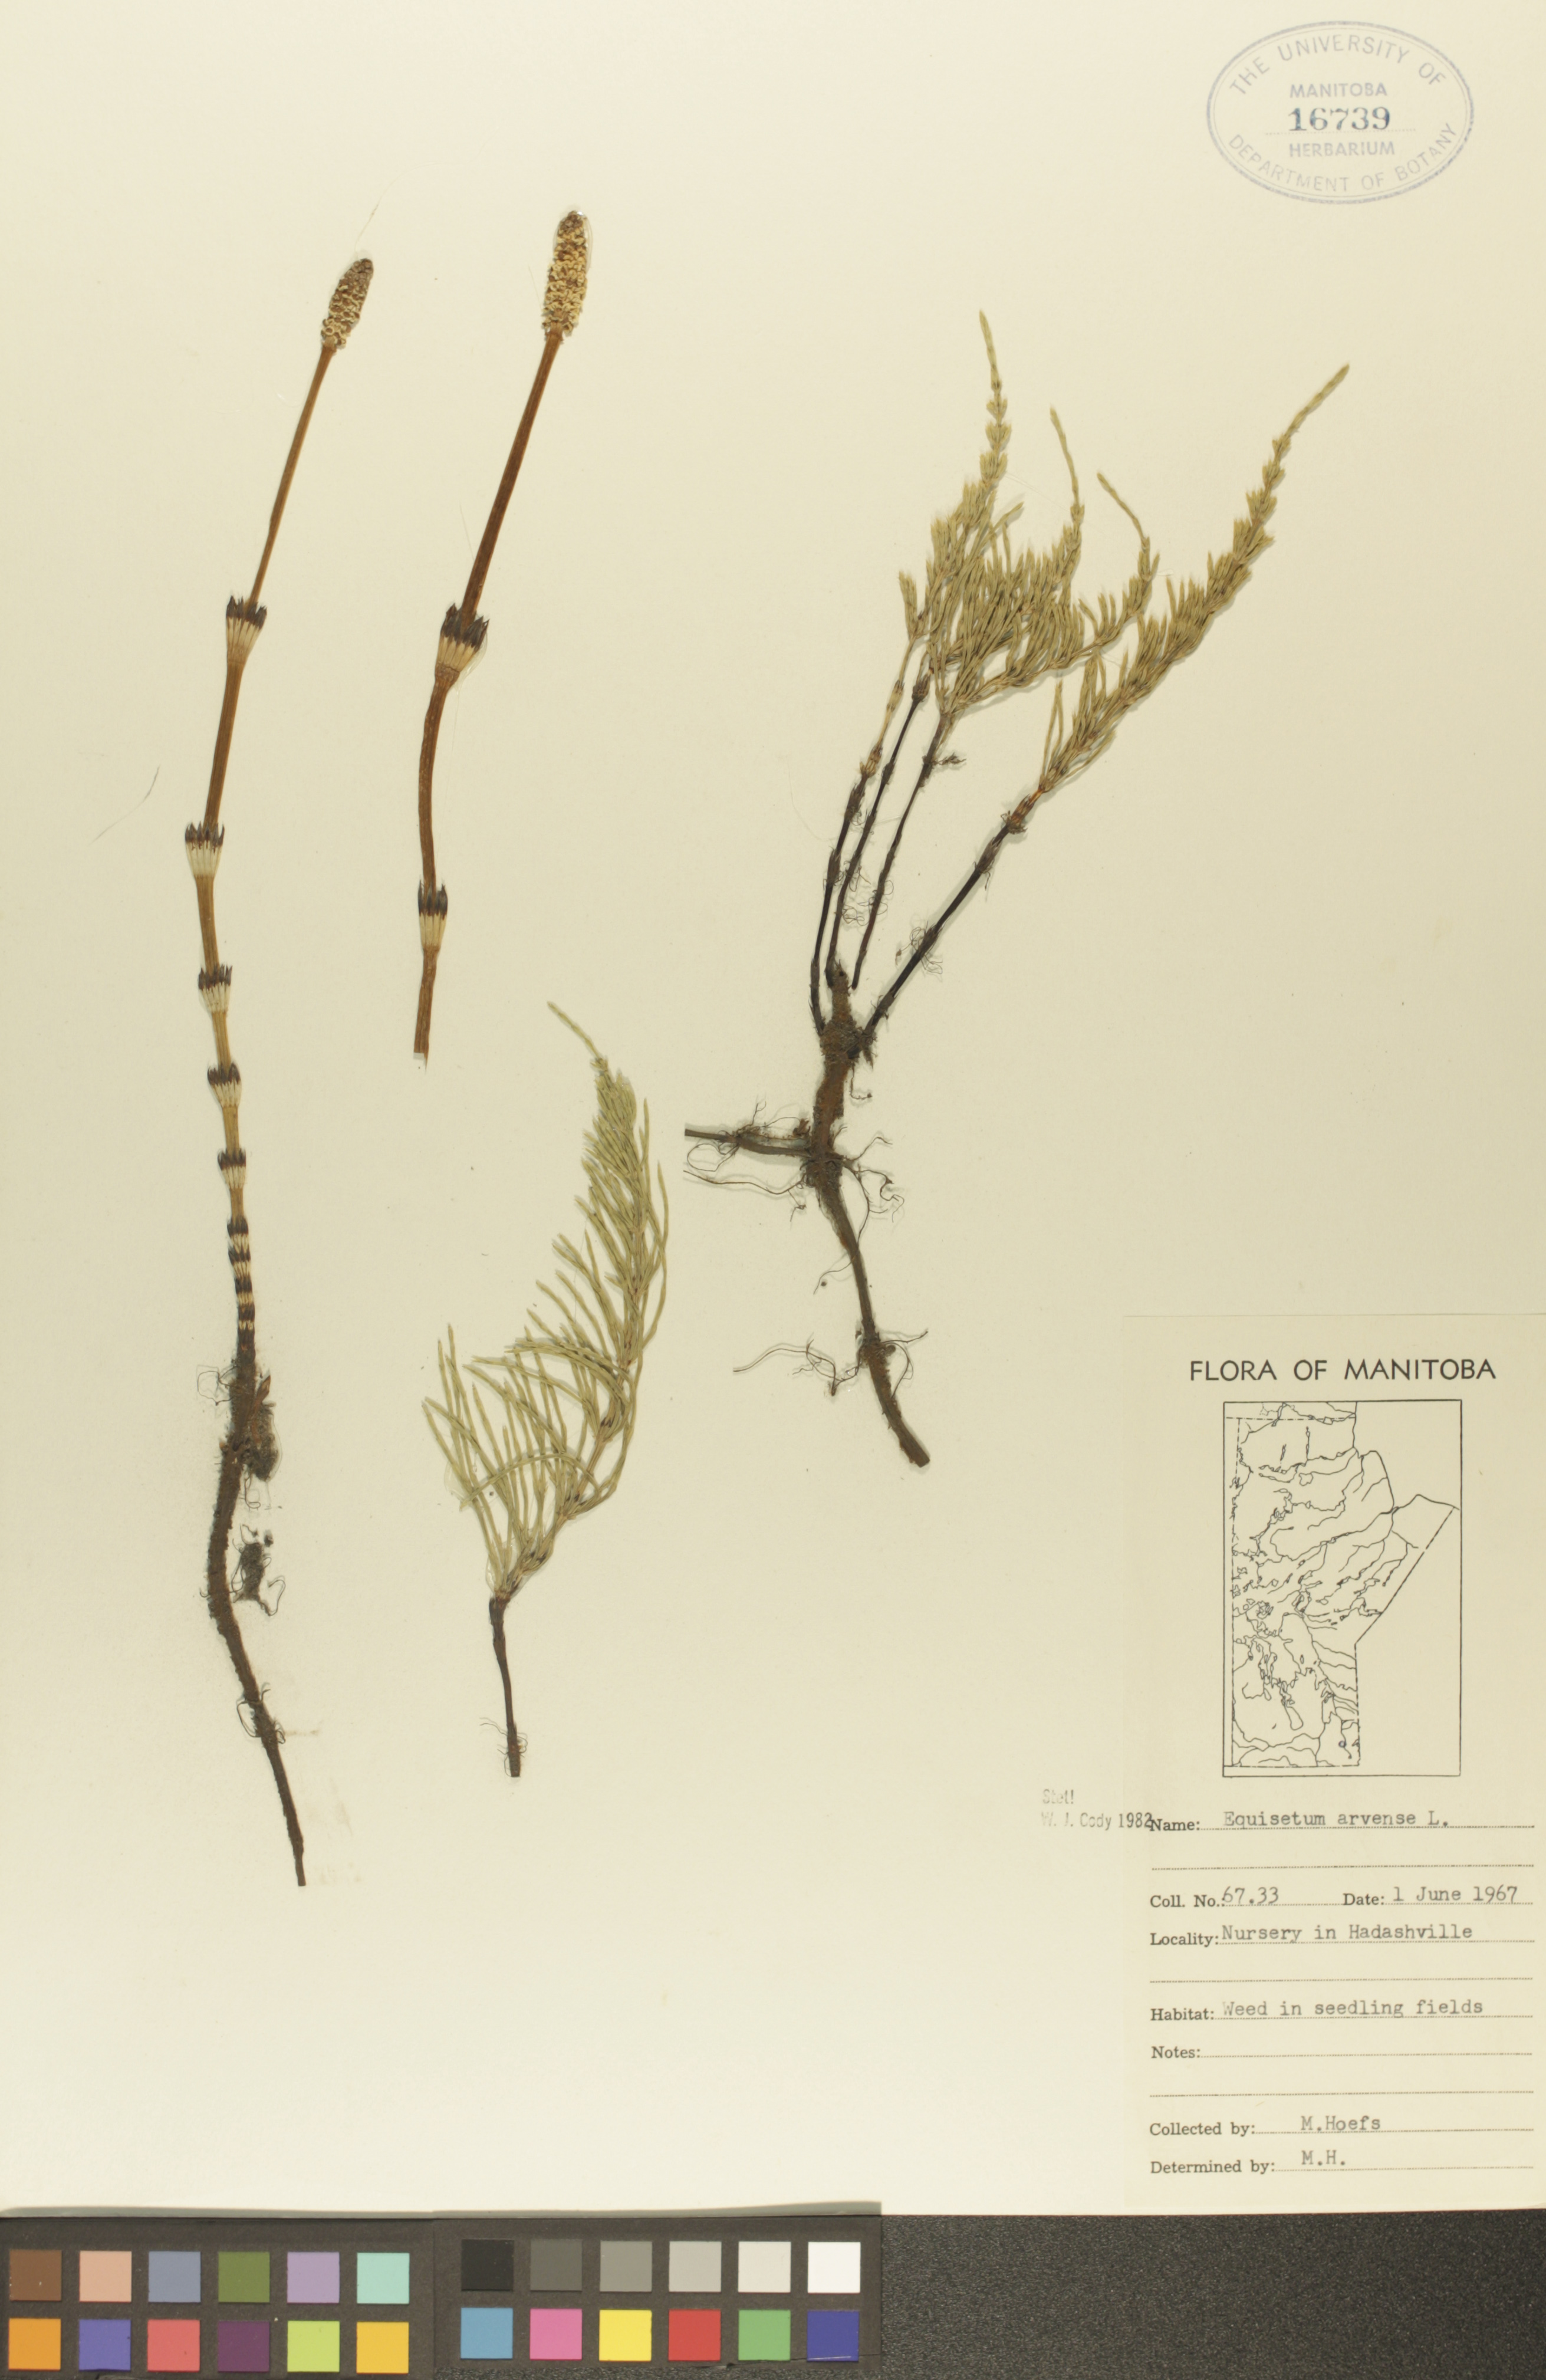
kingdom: Plantae
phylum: Tracheophyta
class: Polypodiopsida
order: Equisetales
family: Equisetaceae
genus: Equisetum
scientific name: Equisetum arvense
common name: Field horsetail
